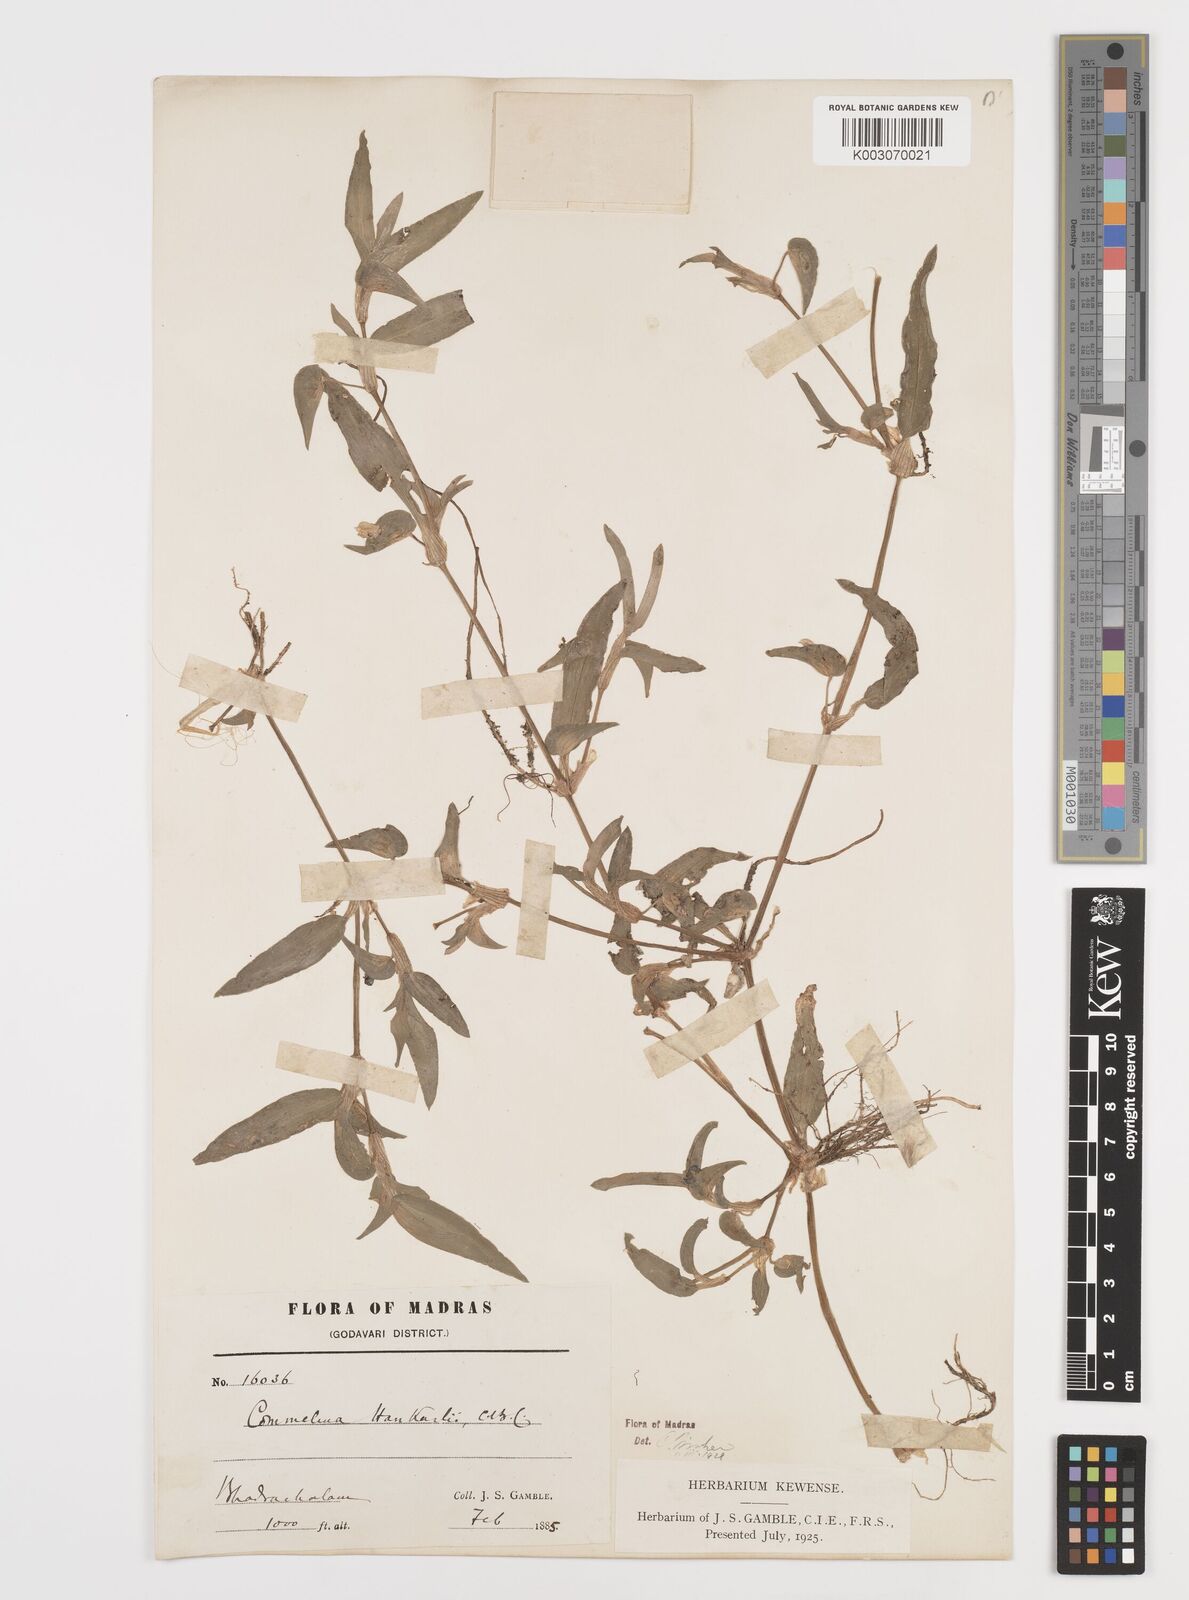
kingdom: Plantae
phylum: Tracheophyta
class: Liliopsida
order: Commelinales
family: Commelinaceae
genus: Commelina
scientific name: Commelina caroliniana
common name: Carolina dayflower
